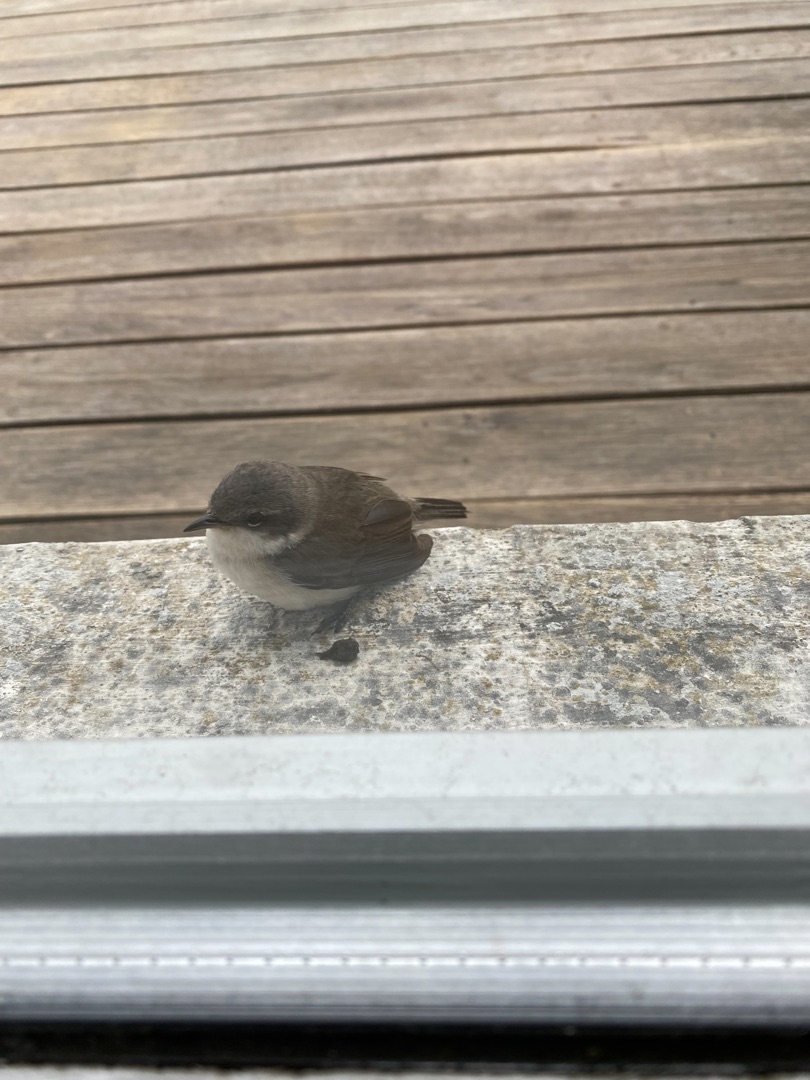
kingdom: Animalia
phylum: Chordata
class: Aves
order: Passeriformes
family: Sylviidae
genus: Sylvia
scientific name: Sylvia curruca
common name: Gærdesanger
